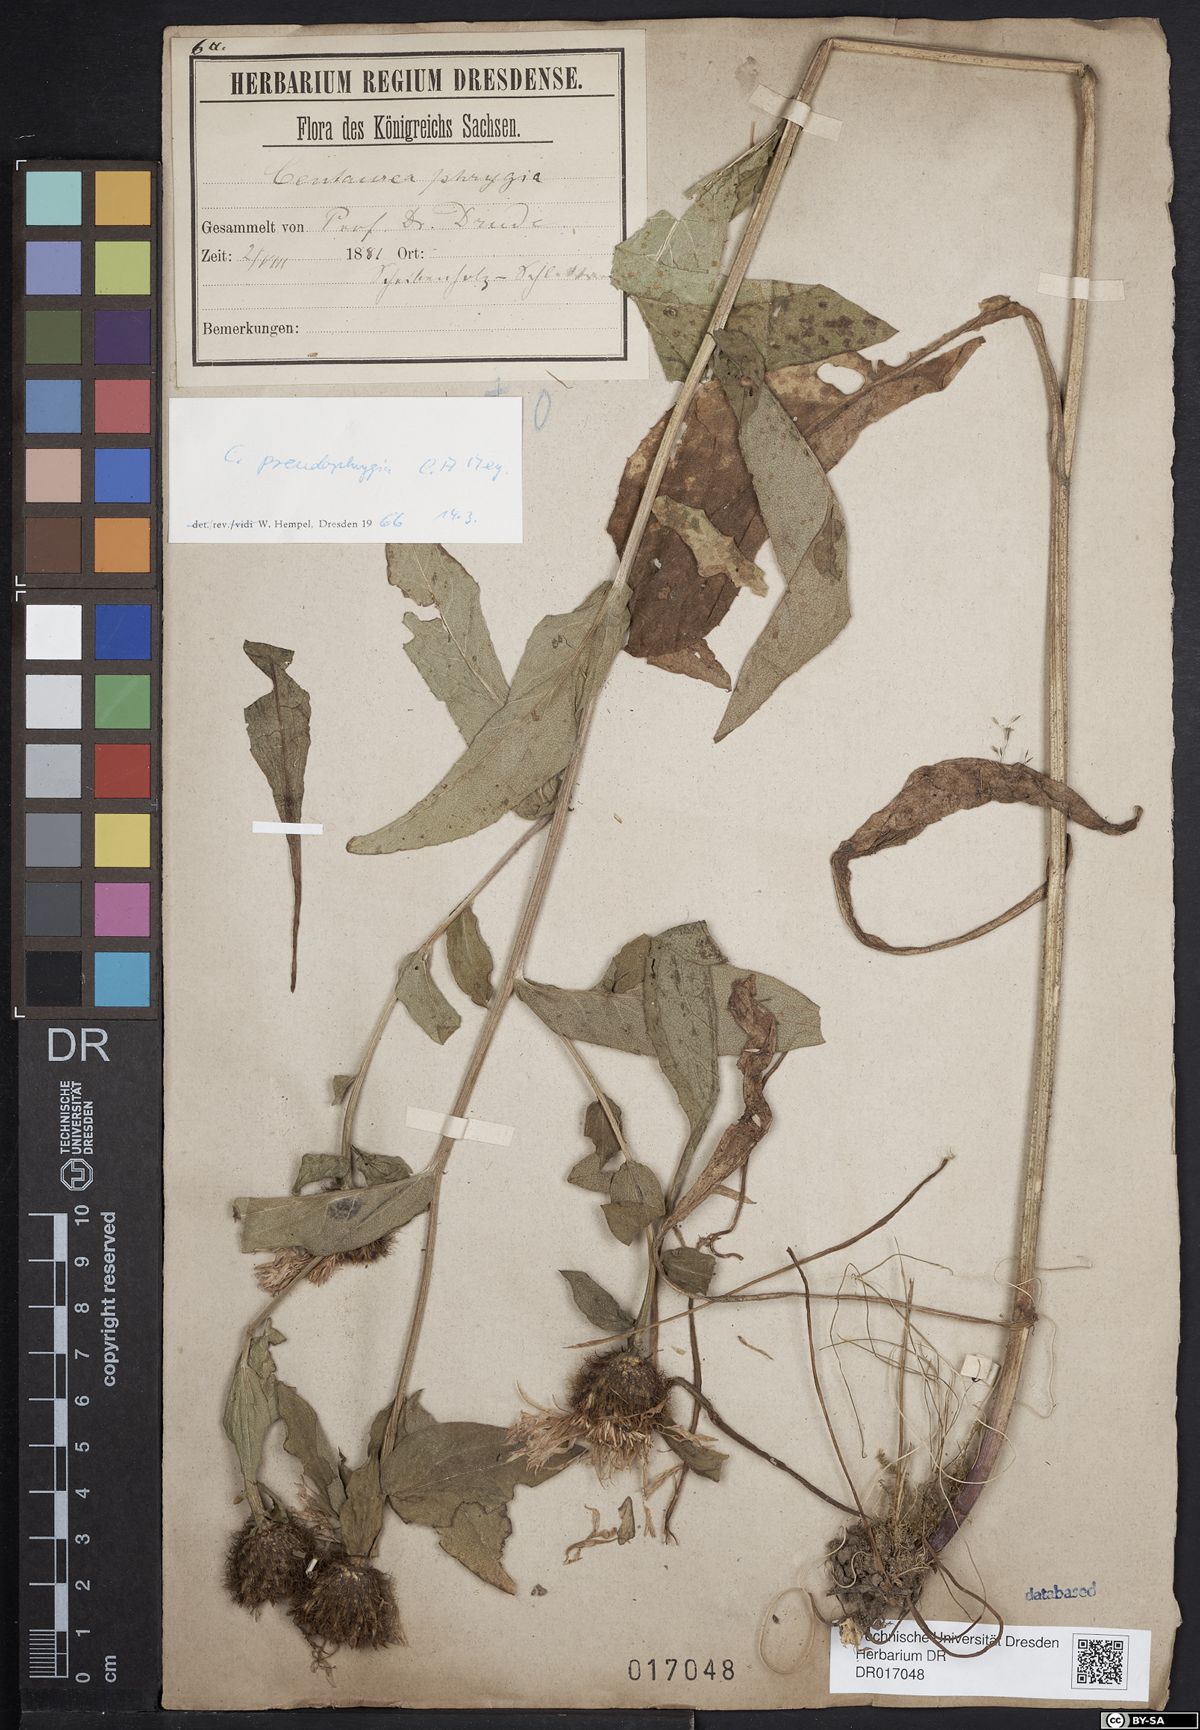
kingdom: Plantae
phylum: Tracheophyta
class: Magnoliopsida
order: Asterales
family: Asteraceae
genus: Centaurea
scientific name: Centaurea pseudophrygia
